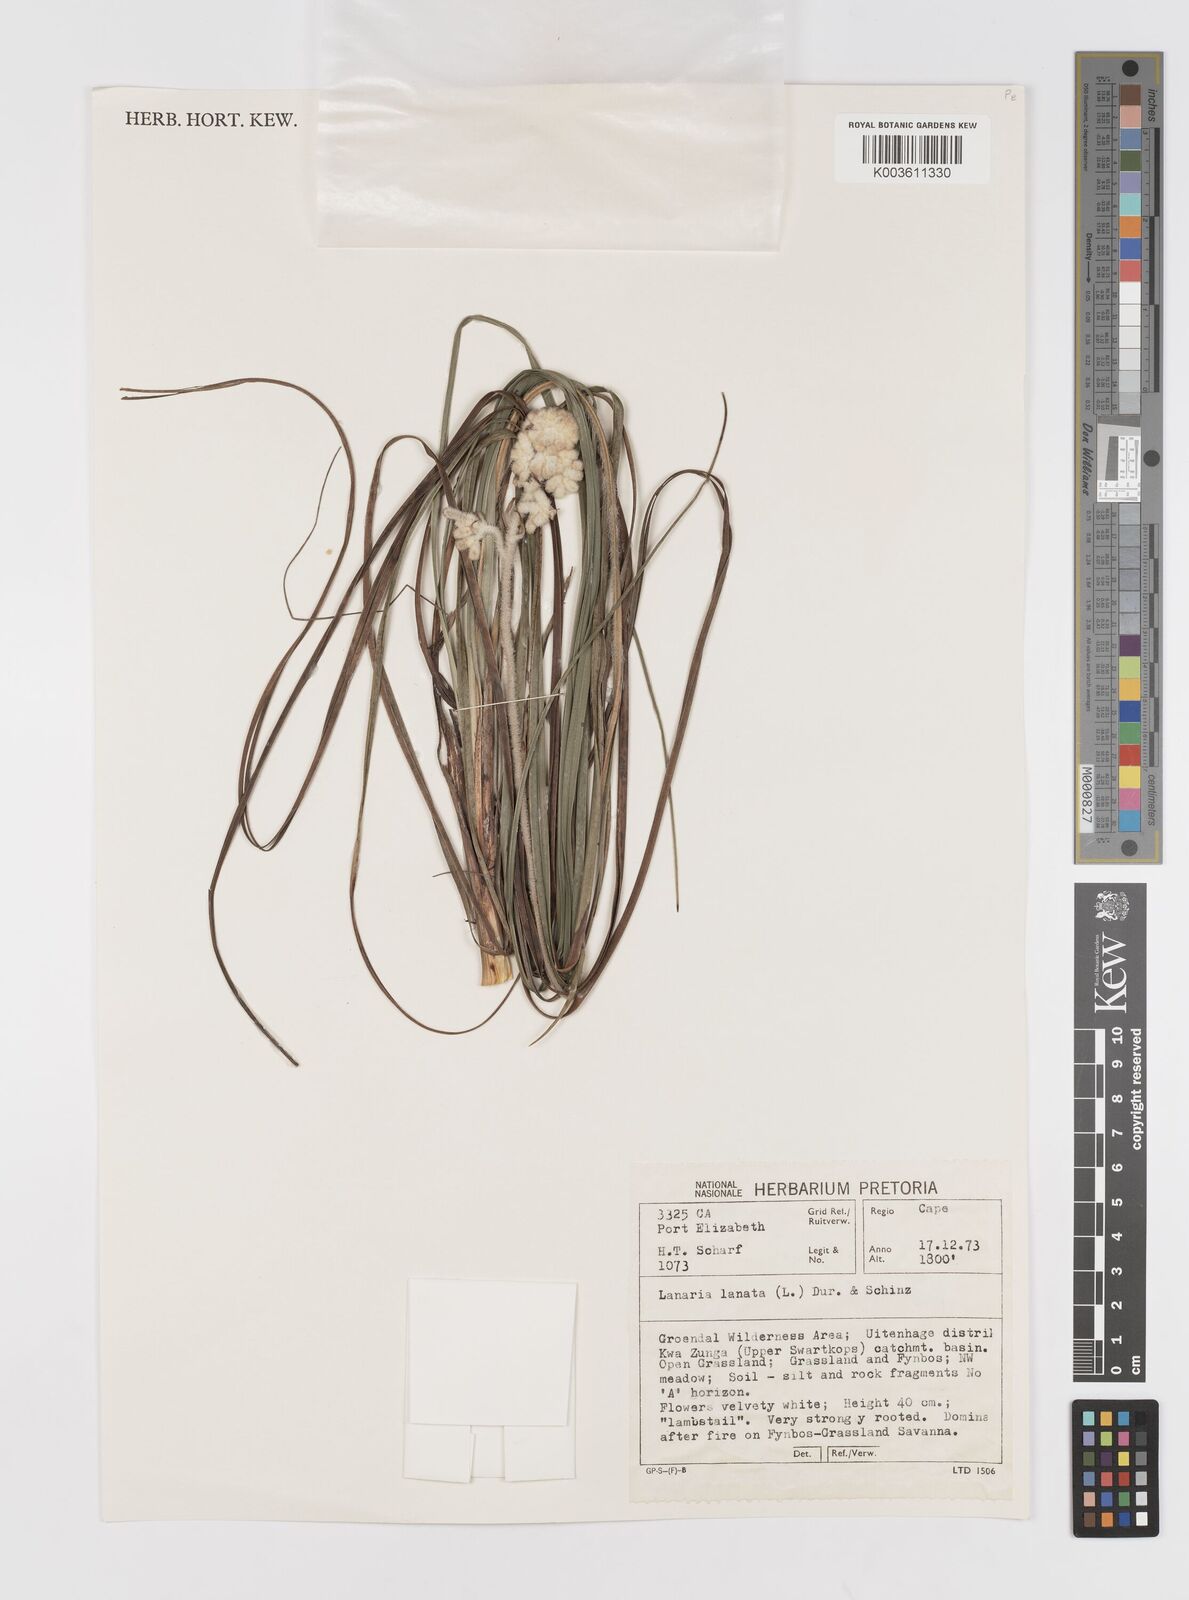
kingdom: Plantae
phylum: Tracheophyta
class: Liliopsida
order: Asparagales
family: Lanariaceae
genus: Lanaria
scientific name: Lanaria lanata
